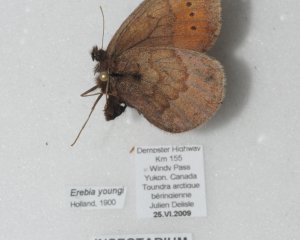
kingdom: Animalia
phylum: Arthropoda
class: Insecta
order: Lepidoptera
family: Nymphalidae
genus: Erebia
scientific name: Erebia youngi
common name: Four-dotted Alpine
